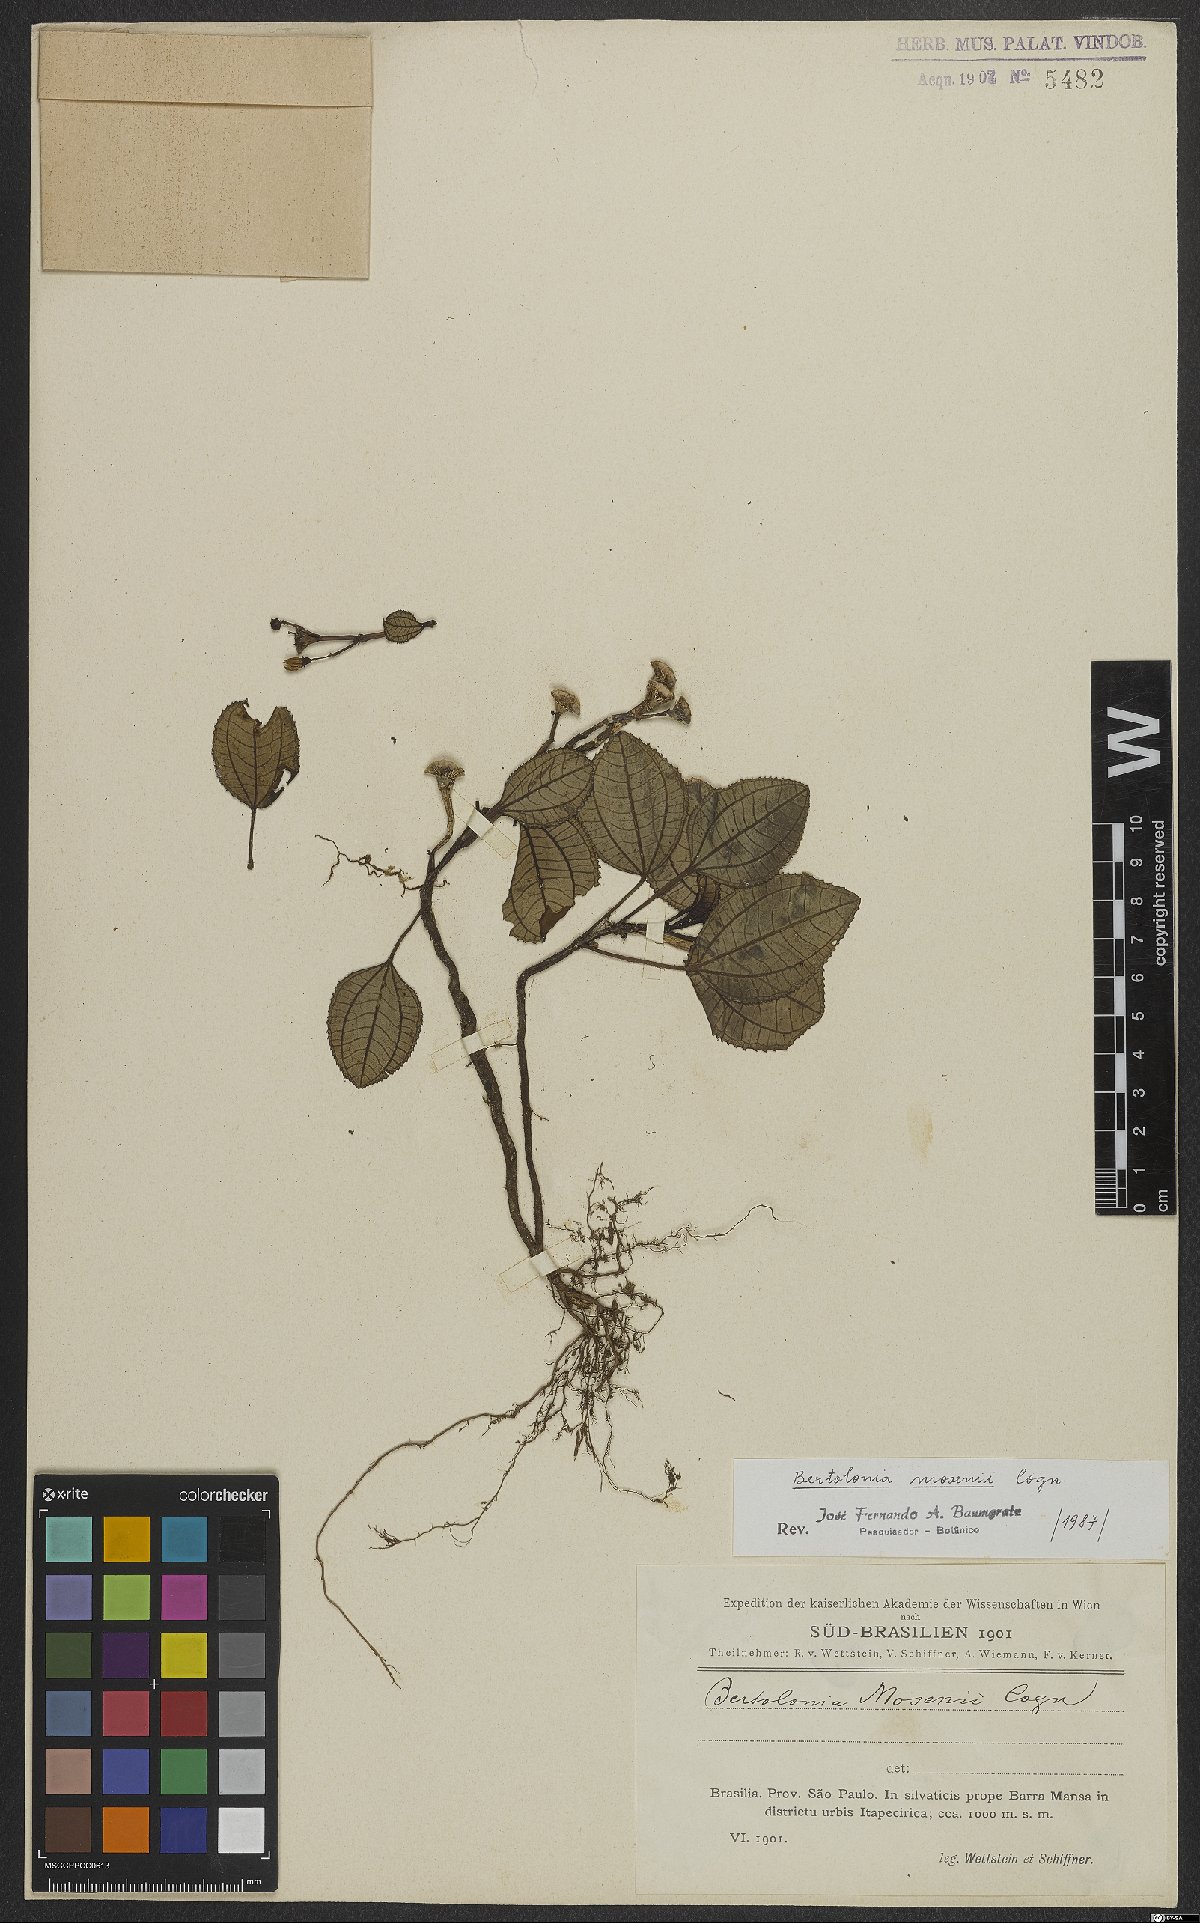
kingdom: Plantae
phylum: Tracheophyta
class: Magnoliopsida
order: Myrtales
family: Melastomataceae
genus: Bertolonia
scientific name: Bertolonia mosenii
